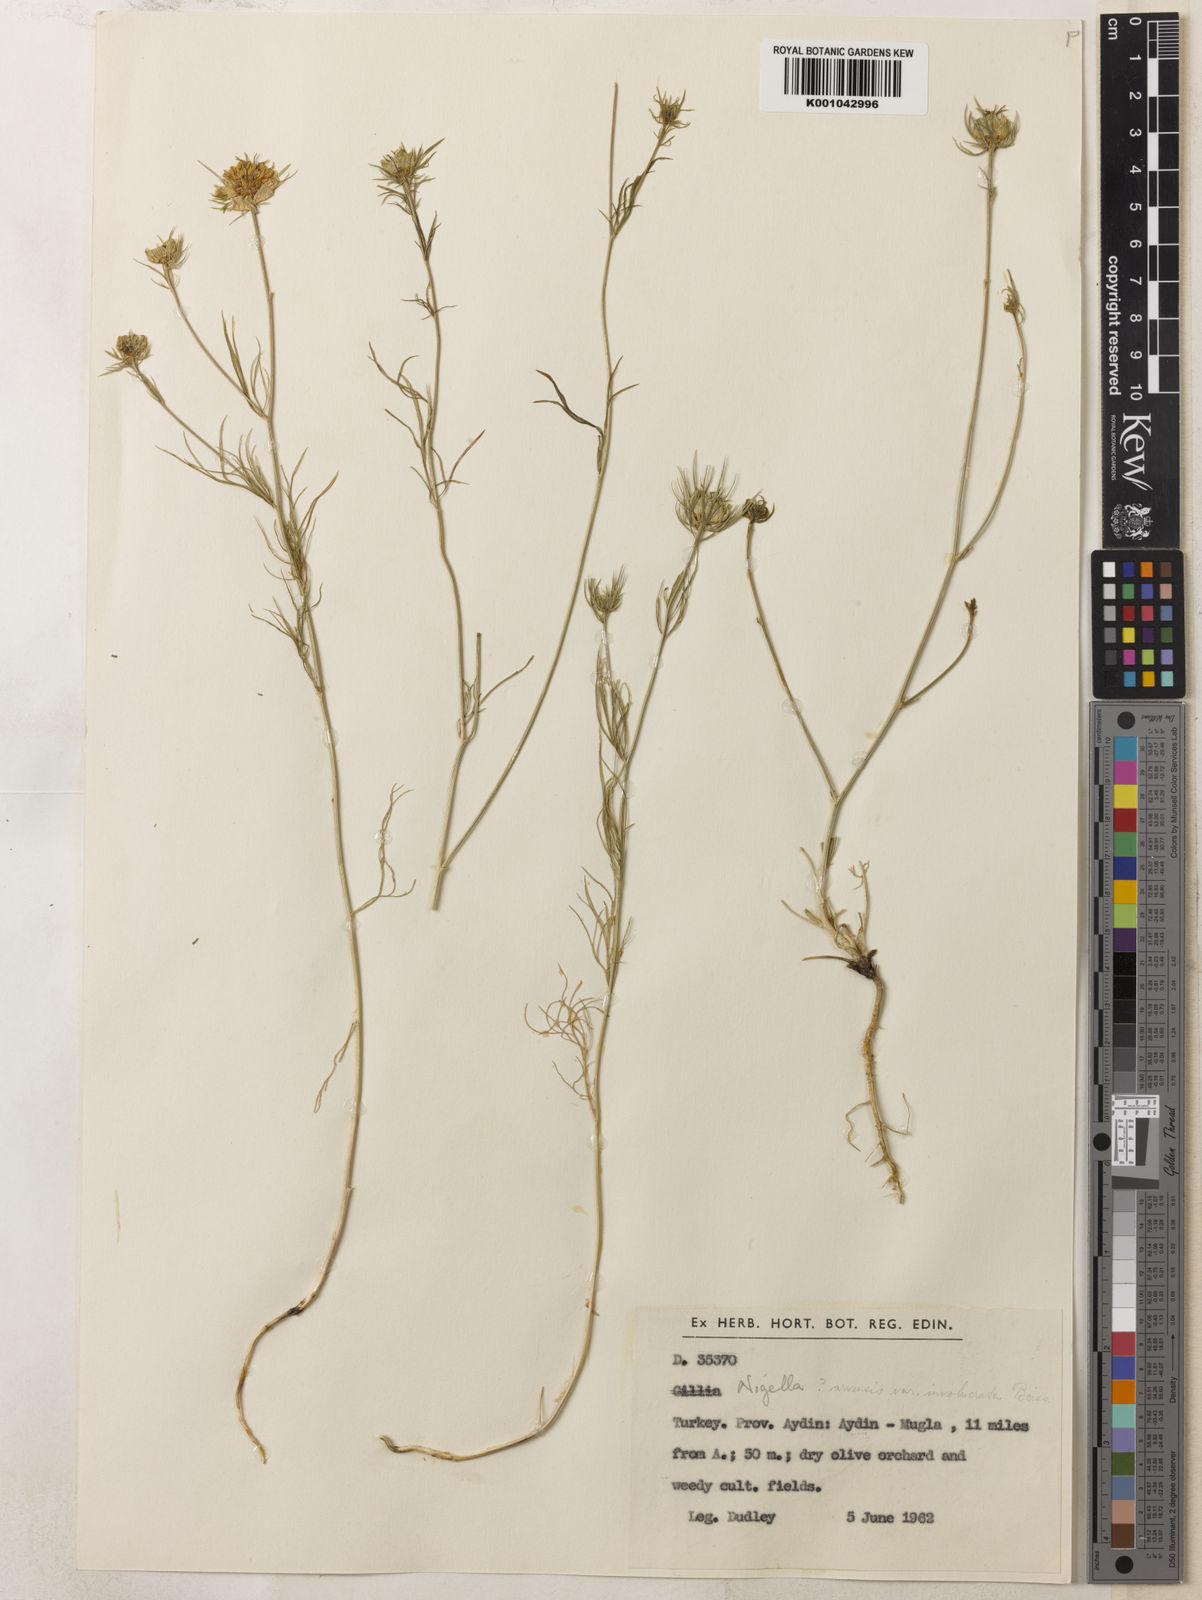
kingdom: Plantae
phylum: Tracheophyta
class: Magnoliopsida
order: Ranunculales
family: Ranunculaceae
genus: Nigella
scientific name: Nigella arvensis
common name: Wild fennel-flower
